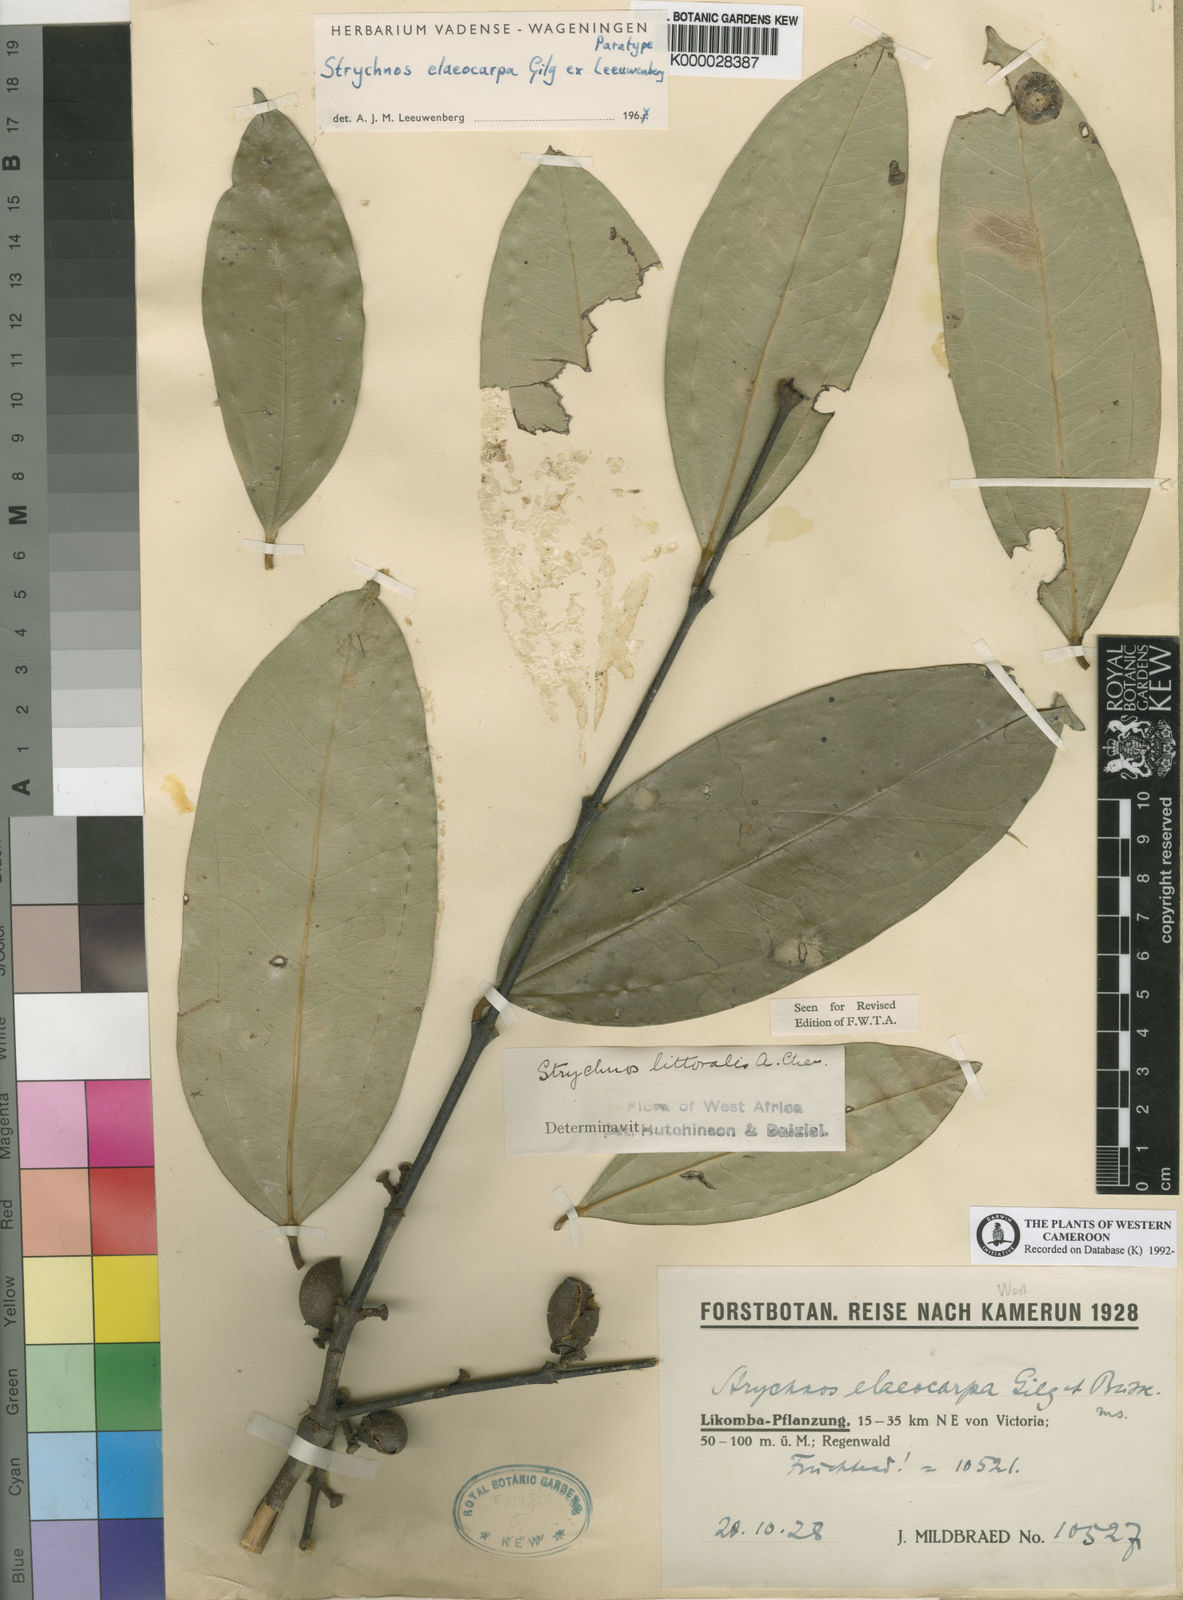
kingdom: Plantae
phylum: Tracheophyta
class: Magnoliopsida
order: Gentianales
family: Loganiaceae
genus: Strychnos
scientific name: Strychnos elaeocarpa
